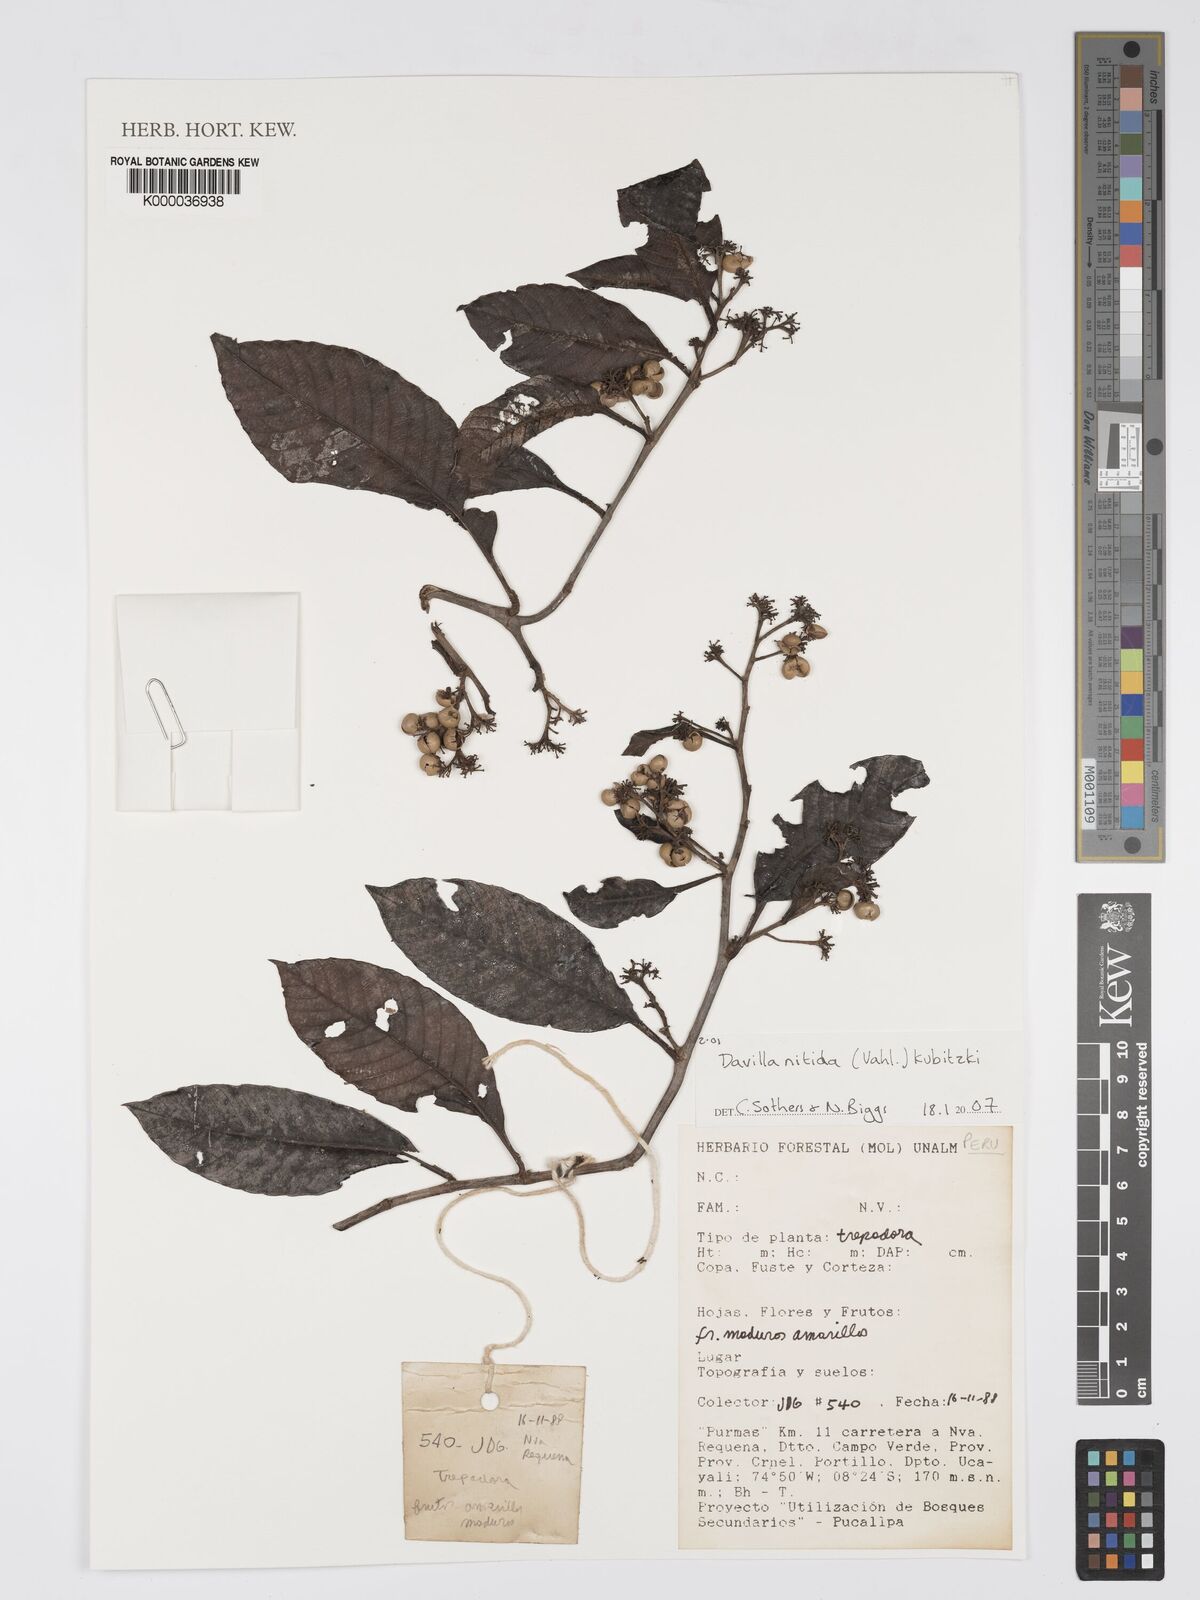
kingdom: Plantae
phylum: Tracheophyta
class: Magnoliopsida
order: Dilleniales
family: Dilleniaceae
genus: Davilla
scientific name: Davilla nitida
